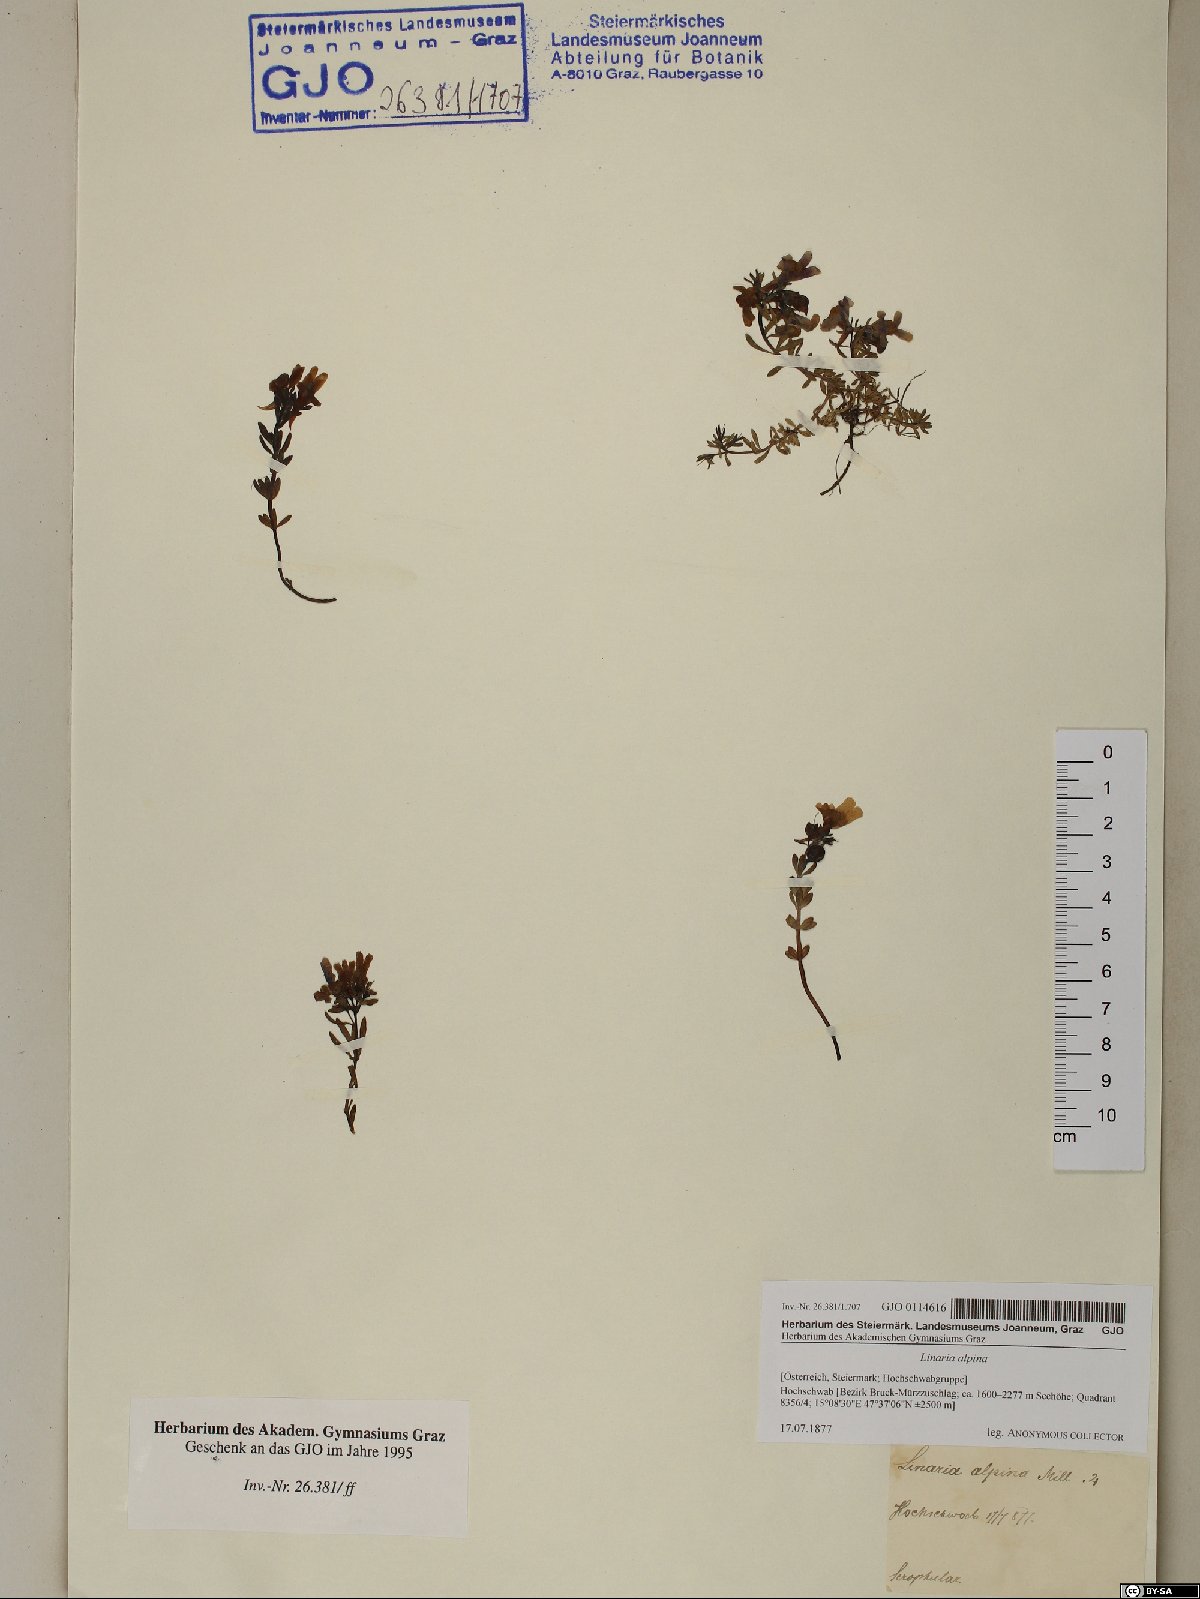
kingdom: Plantae
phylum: Tracheophyta
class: Magnoliopsida
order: Lamiales
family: Plantaginaceae
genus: Linaria
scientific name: Linaria alpina
